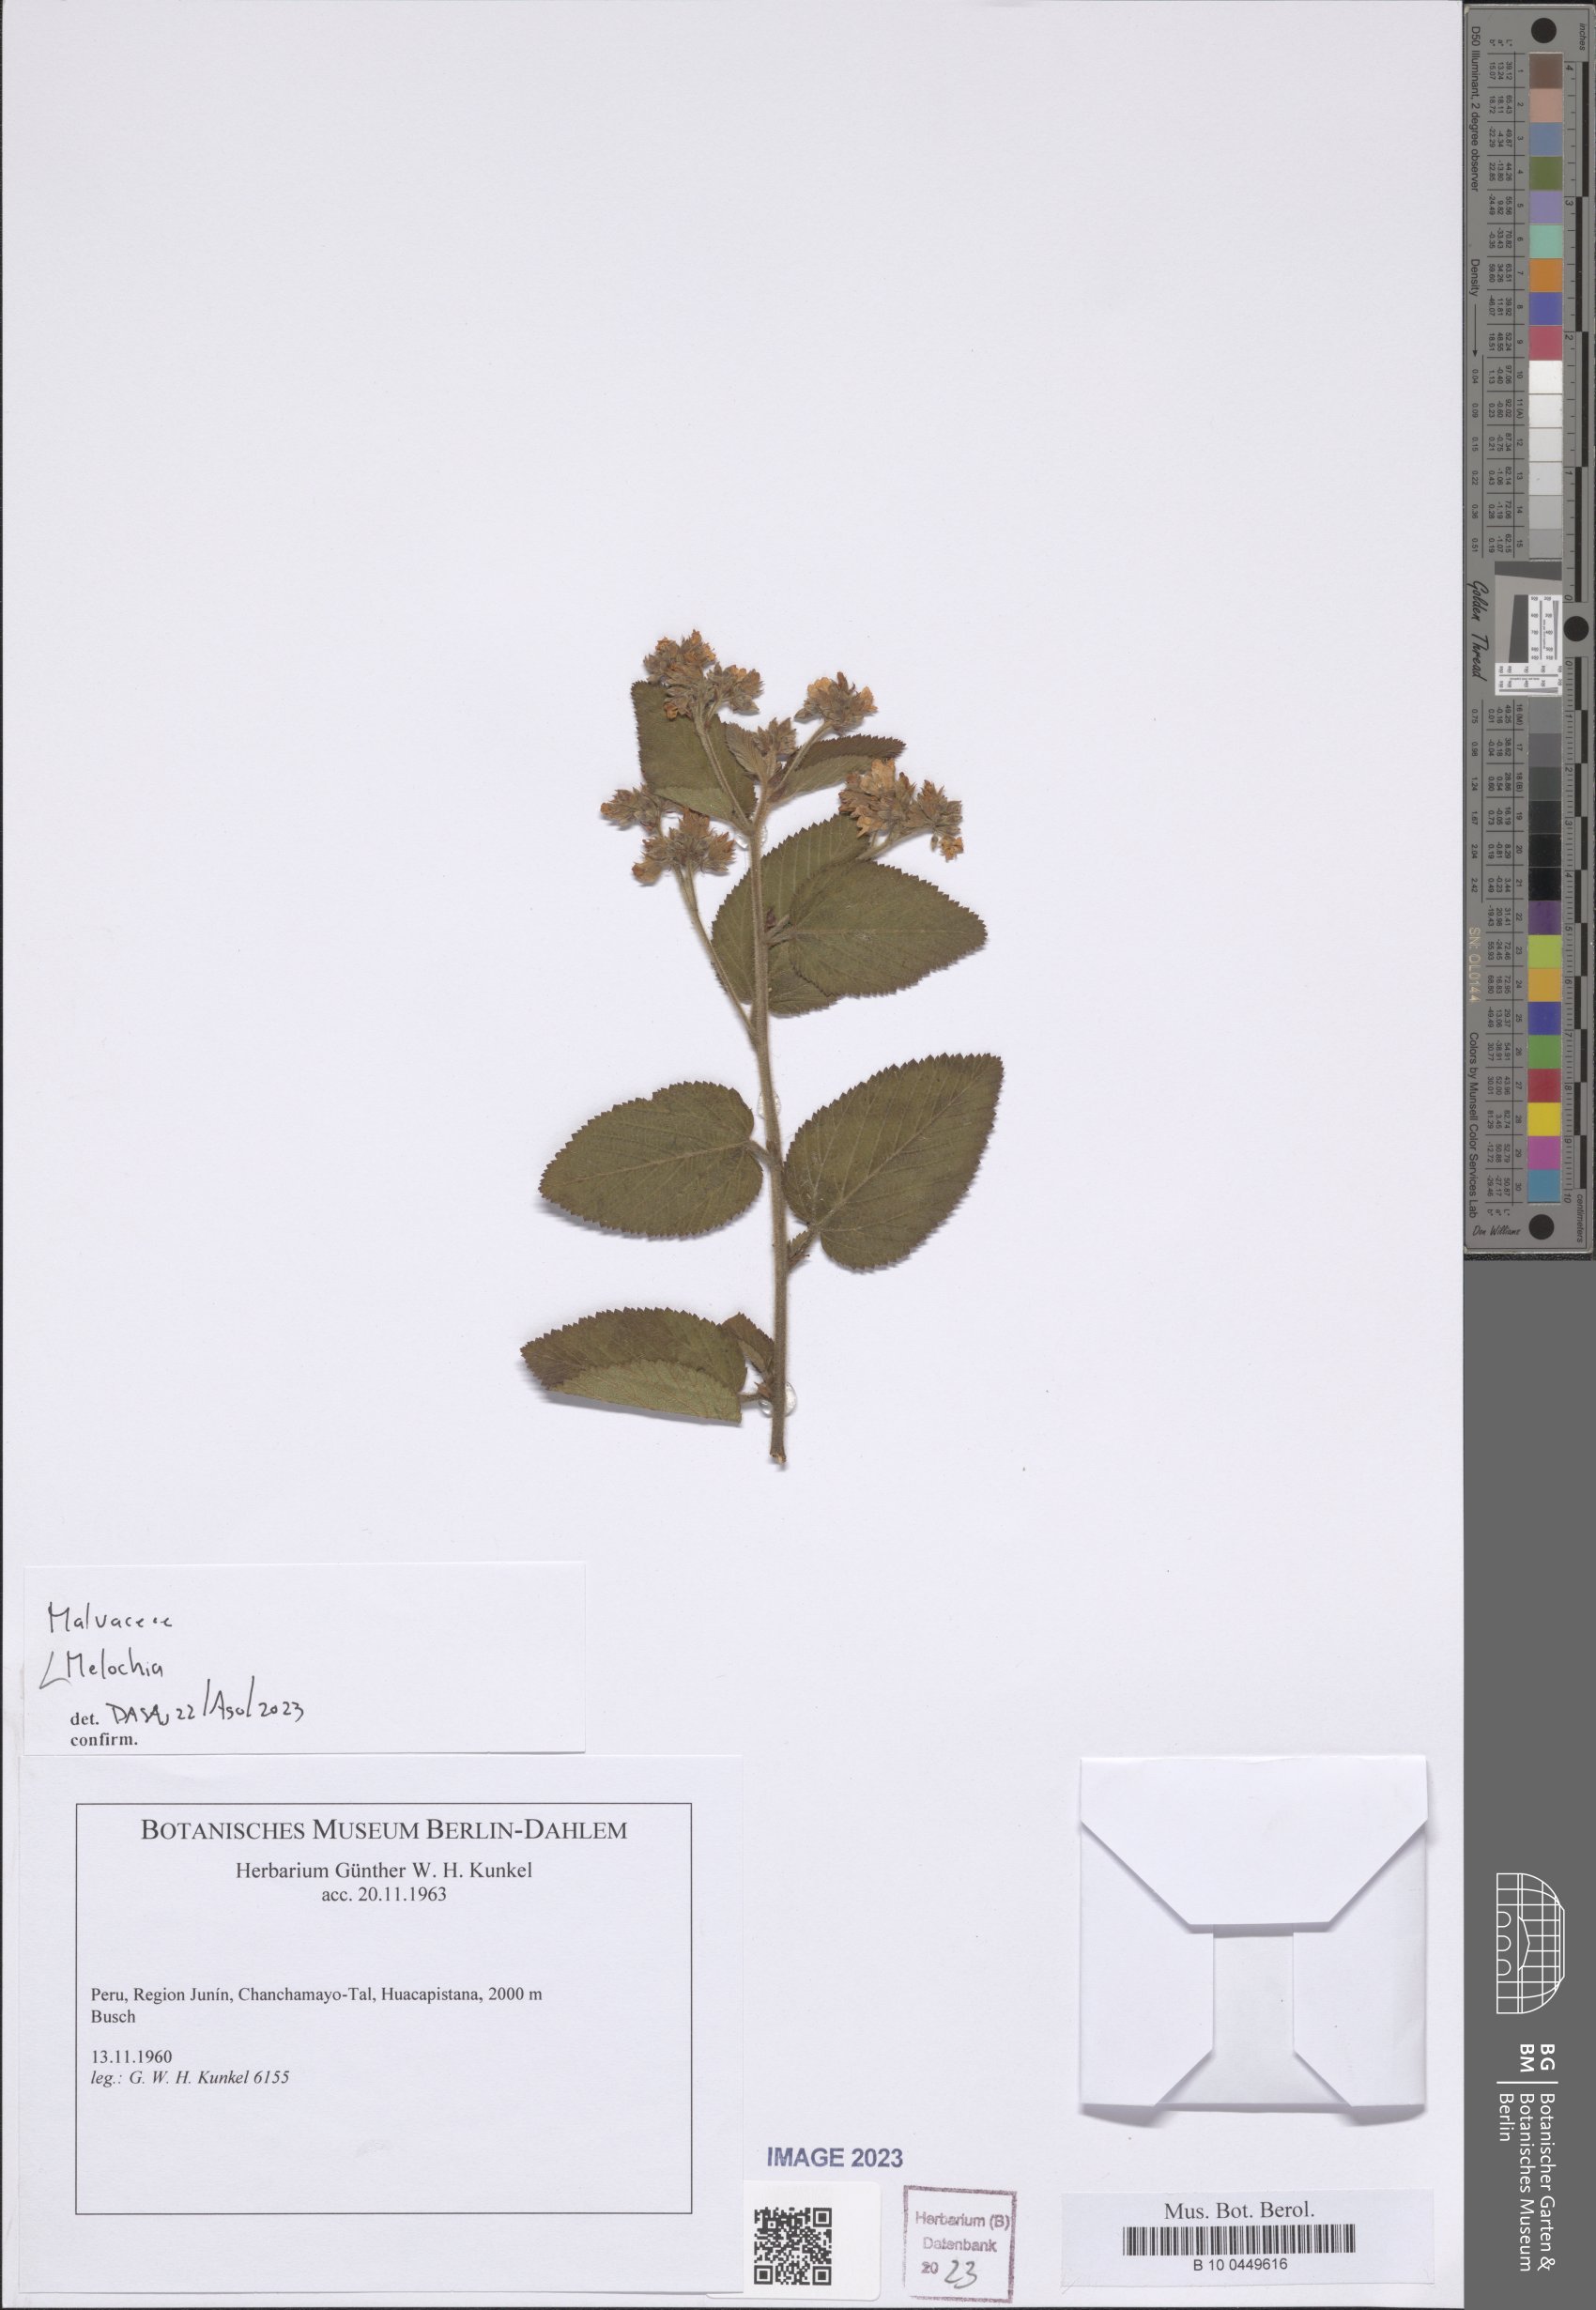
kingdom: Plantae
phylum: Tracheophyta
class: Magnoliopsida
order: Malvales
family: Malvaceae
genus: Melochia
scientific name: Melochia
